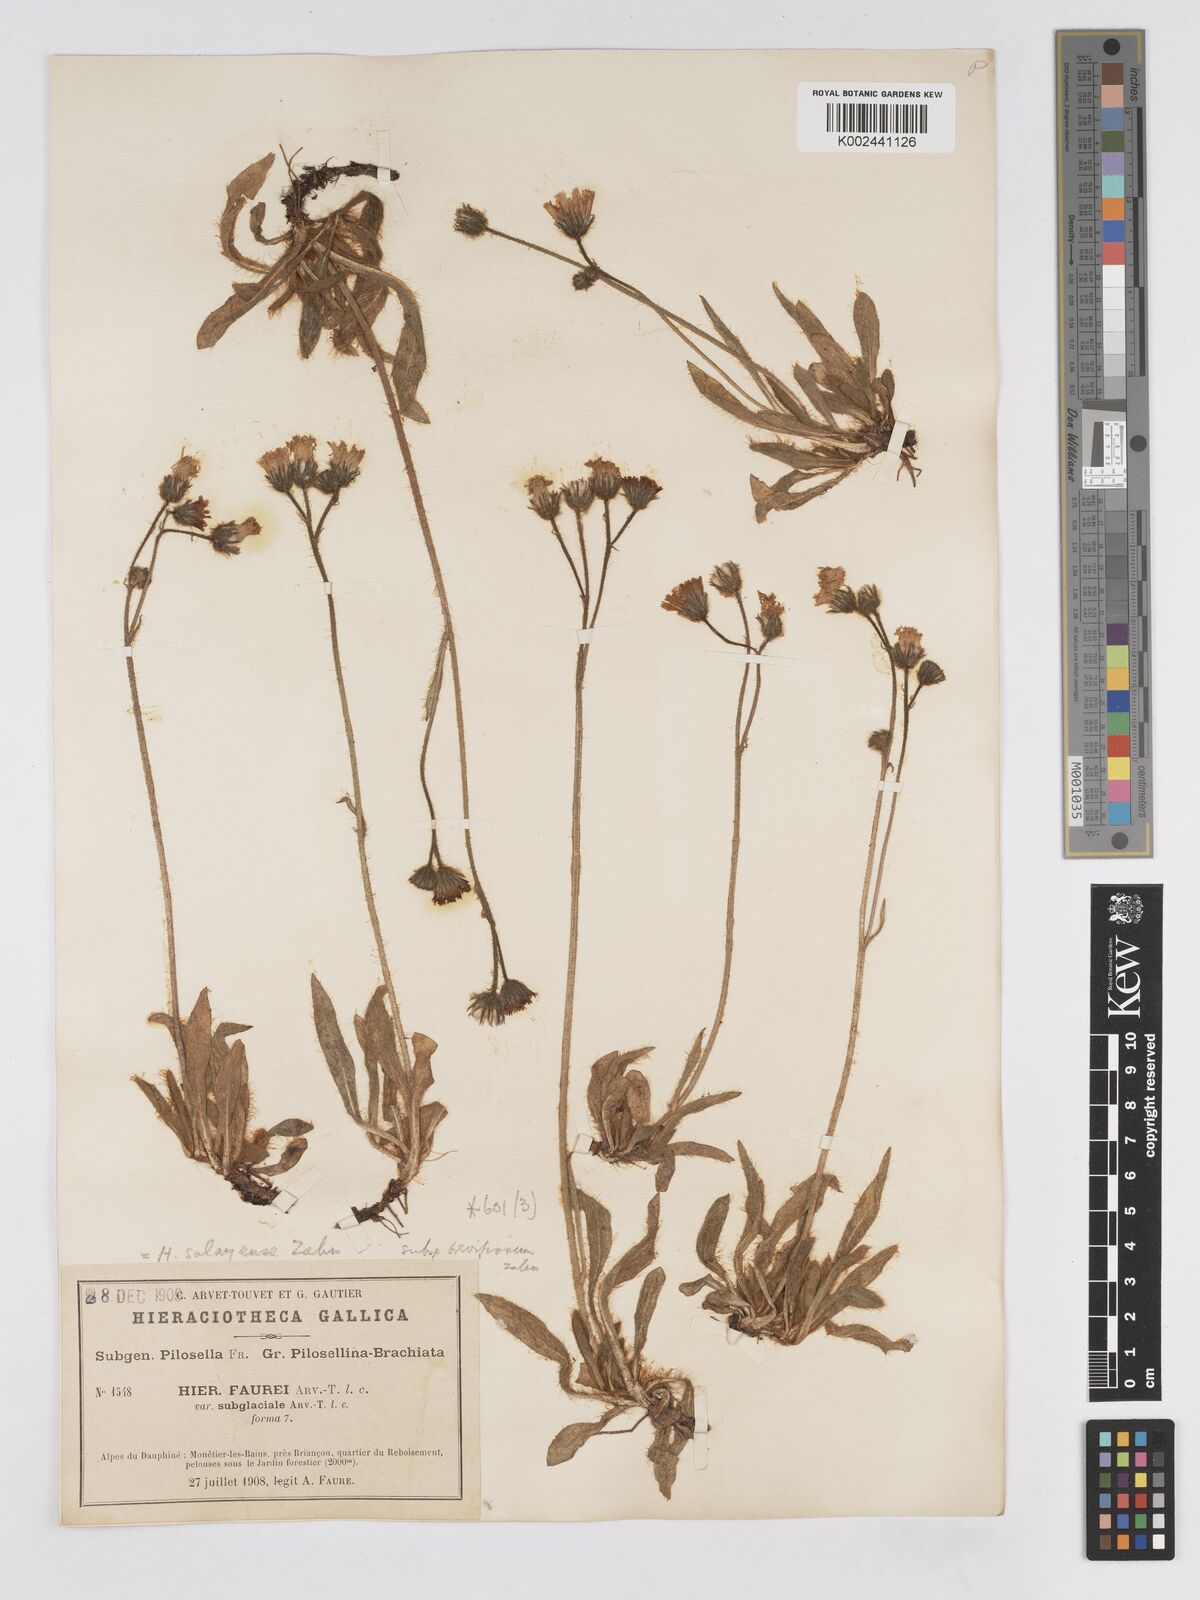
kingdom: Plantae
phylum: Tracheophyta
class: Magnoliopsida
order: Asterales
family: Asteraceae
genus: Pilosella
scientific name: Pilosella subrubens
